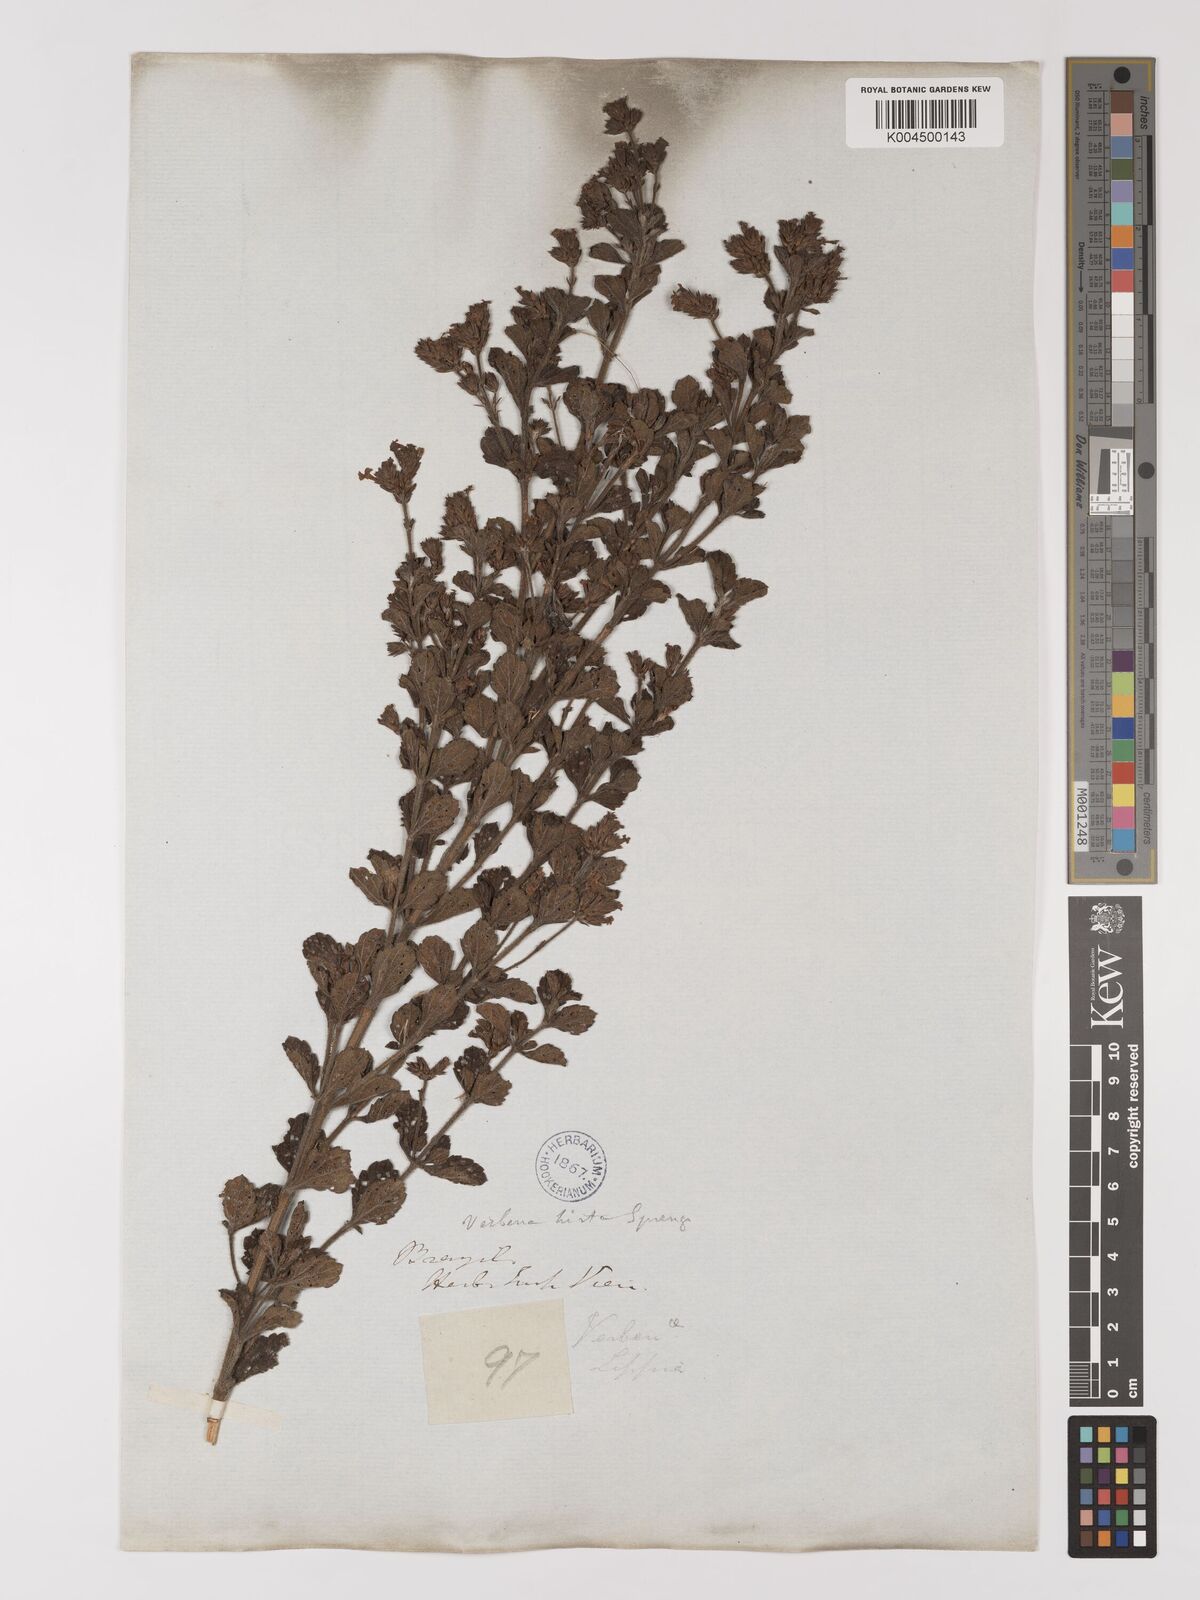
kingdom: Plantae
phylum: Tracheophyta
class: Magnoliopsida
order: Lamiales
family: Verbenaceae
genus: Verbena
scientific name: Verbena hirta
